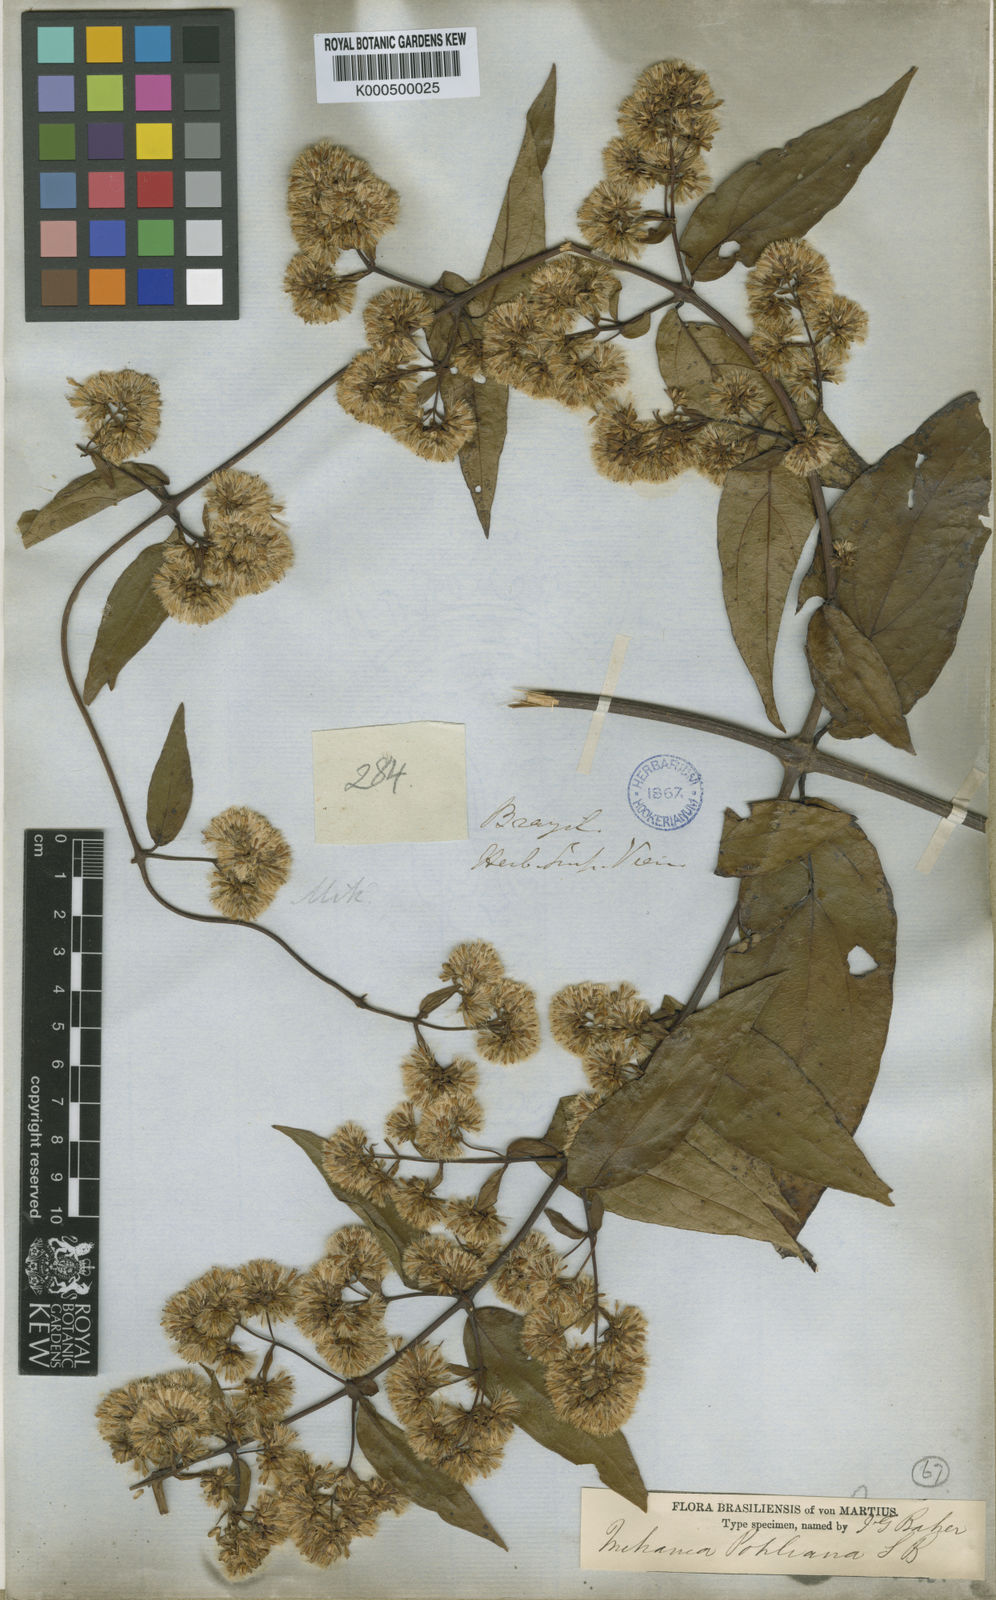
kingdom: Plantae
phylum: Tracheophyta
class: Magnoliopsida
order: Asterales
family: Asteraceae
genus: Mikania
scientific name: Mikania pohliana
